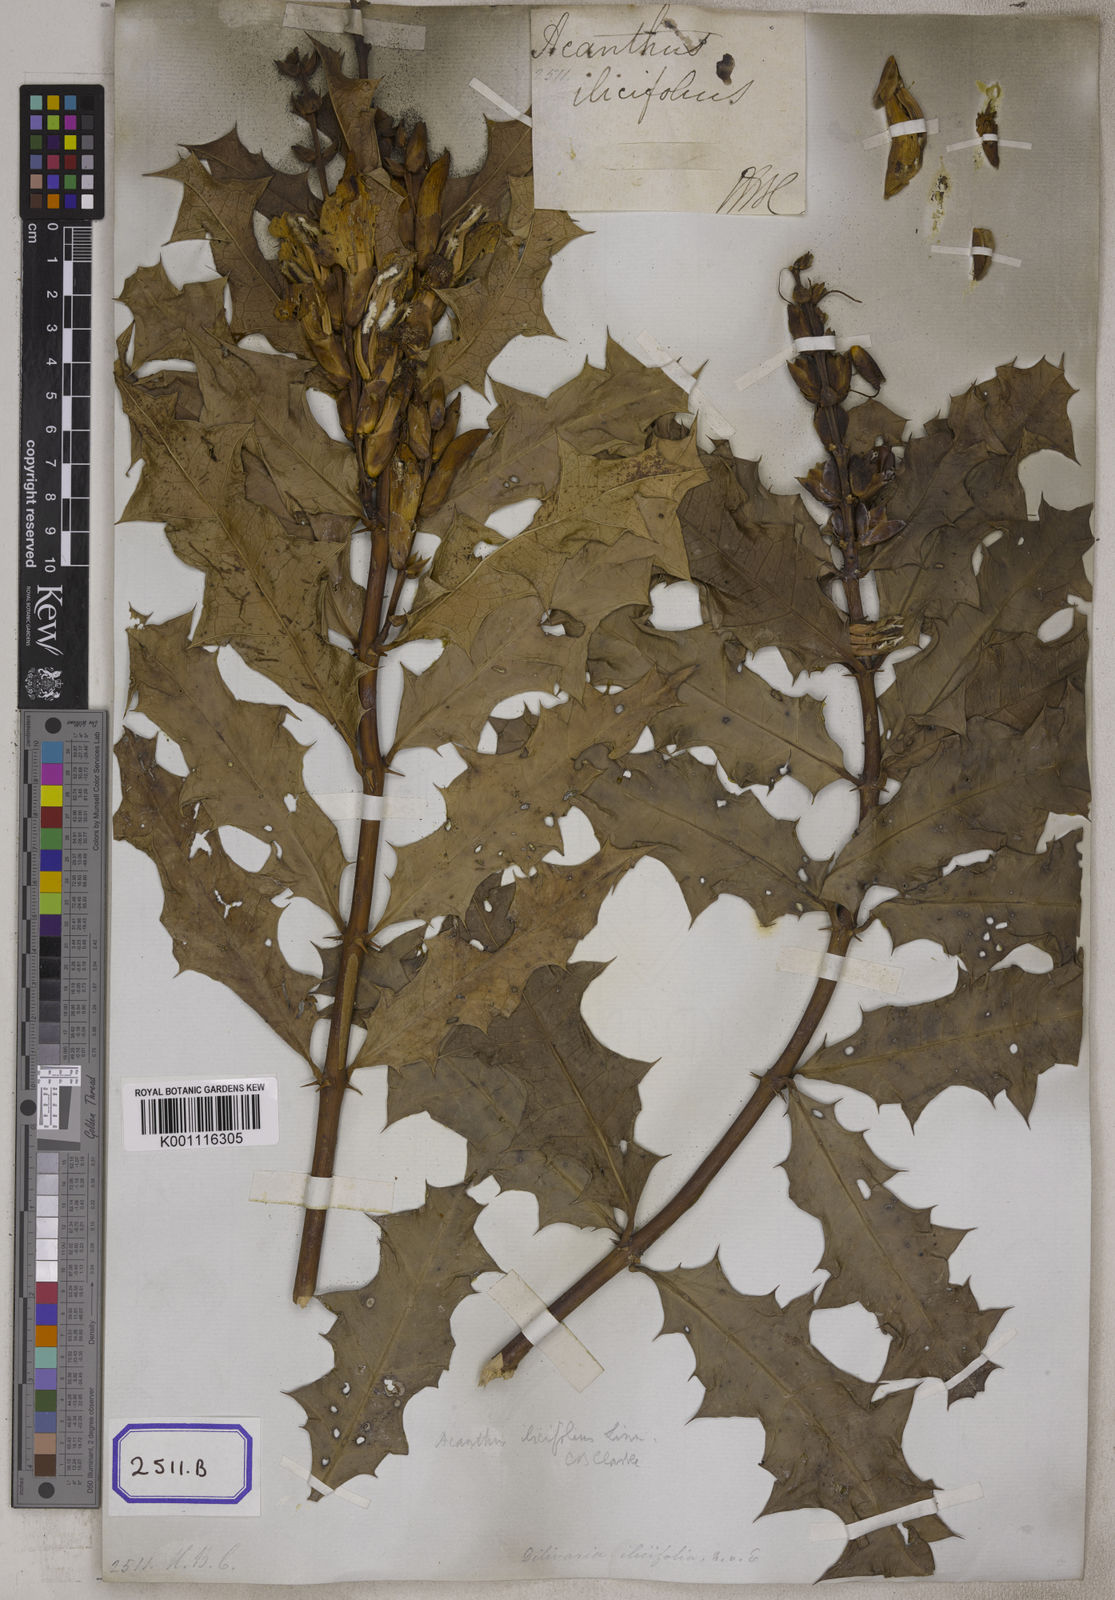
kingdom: Plantae
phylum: Tracheophyta
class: Magnoliopsida
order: Lamiales
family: Acanthaceae
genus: Acanthus
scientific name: Acanthus ilicifolius
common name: Holy mangrove
